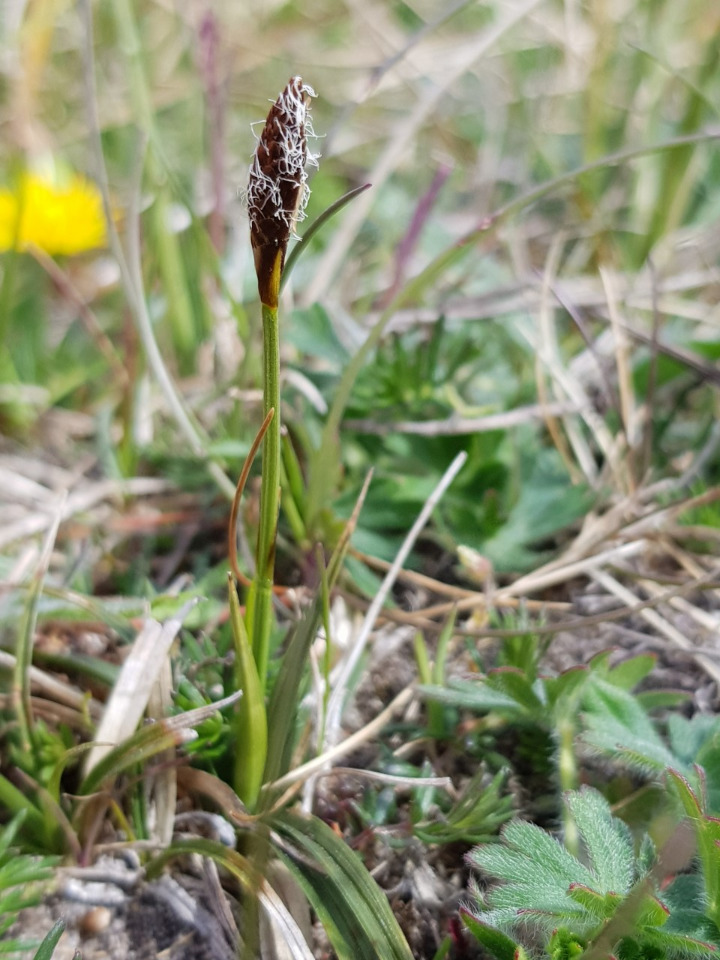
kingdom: Plantae
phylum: Tracheophyta
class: Liliopsida
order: Poales
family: Cyperaceae
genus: Carex
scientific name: Carex caryophyllea
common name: Vår-star
